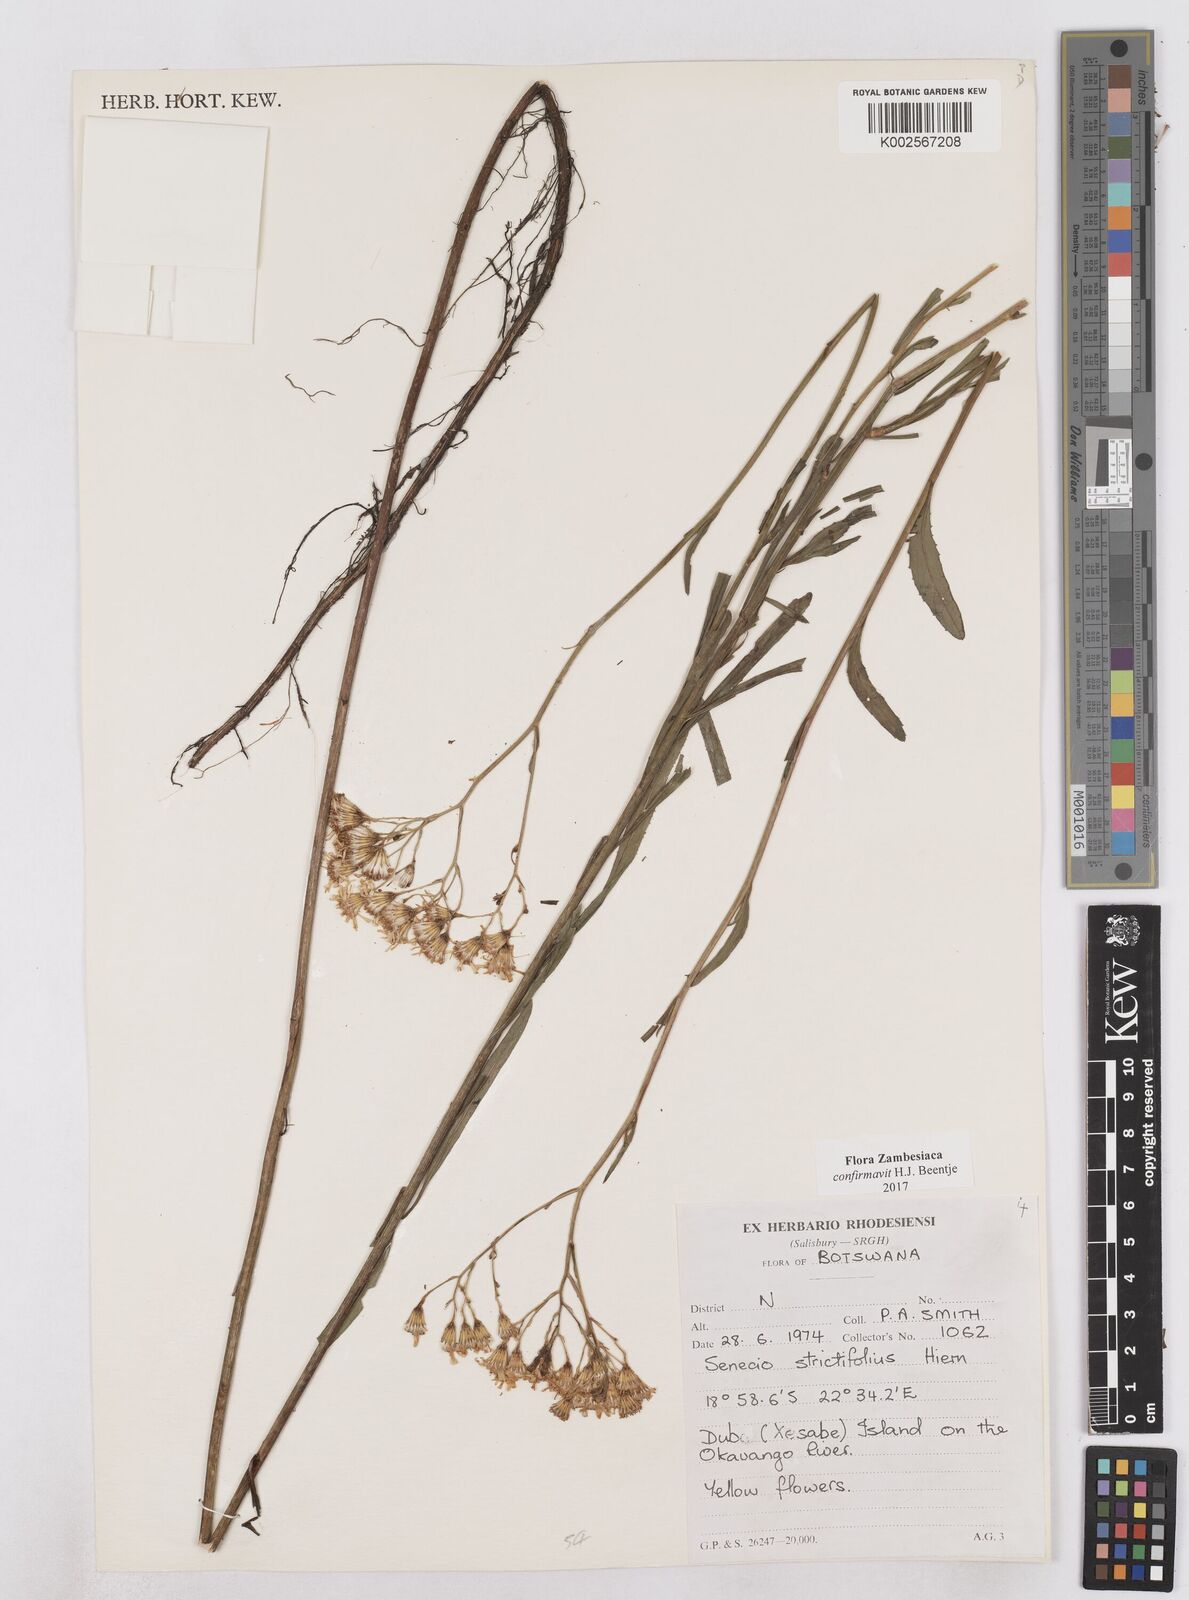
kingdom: Plantae
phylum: Tracheophyta
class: Magnoliopsida
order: Asterales
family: Asteraceae
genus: Senecio
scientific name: Senecio strictifolius
